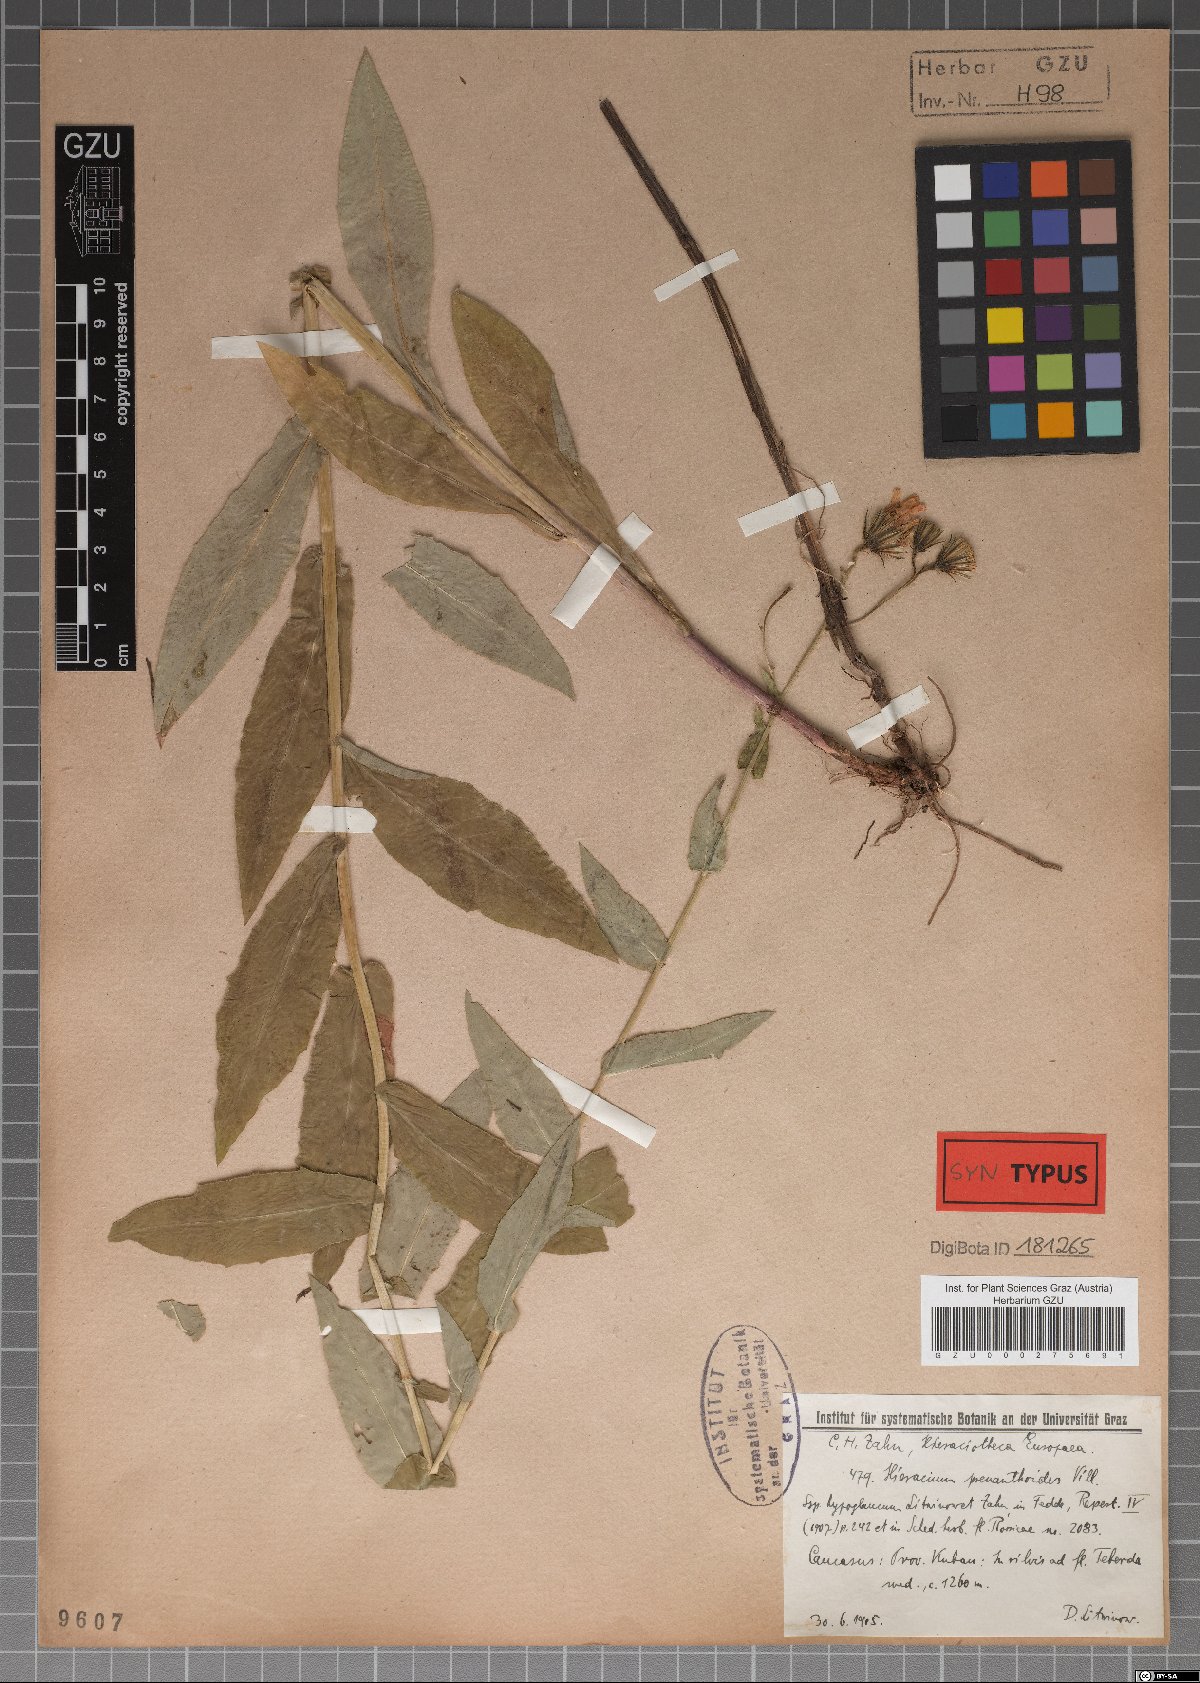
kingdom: Plantae
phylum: Tracheophyta
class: Magnoliopsida
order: Asterales
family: Asteraceae
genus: Hieracium
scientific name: Hieracium prenanthoides
